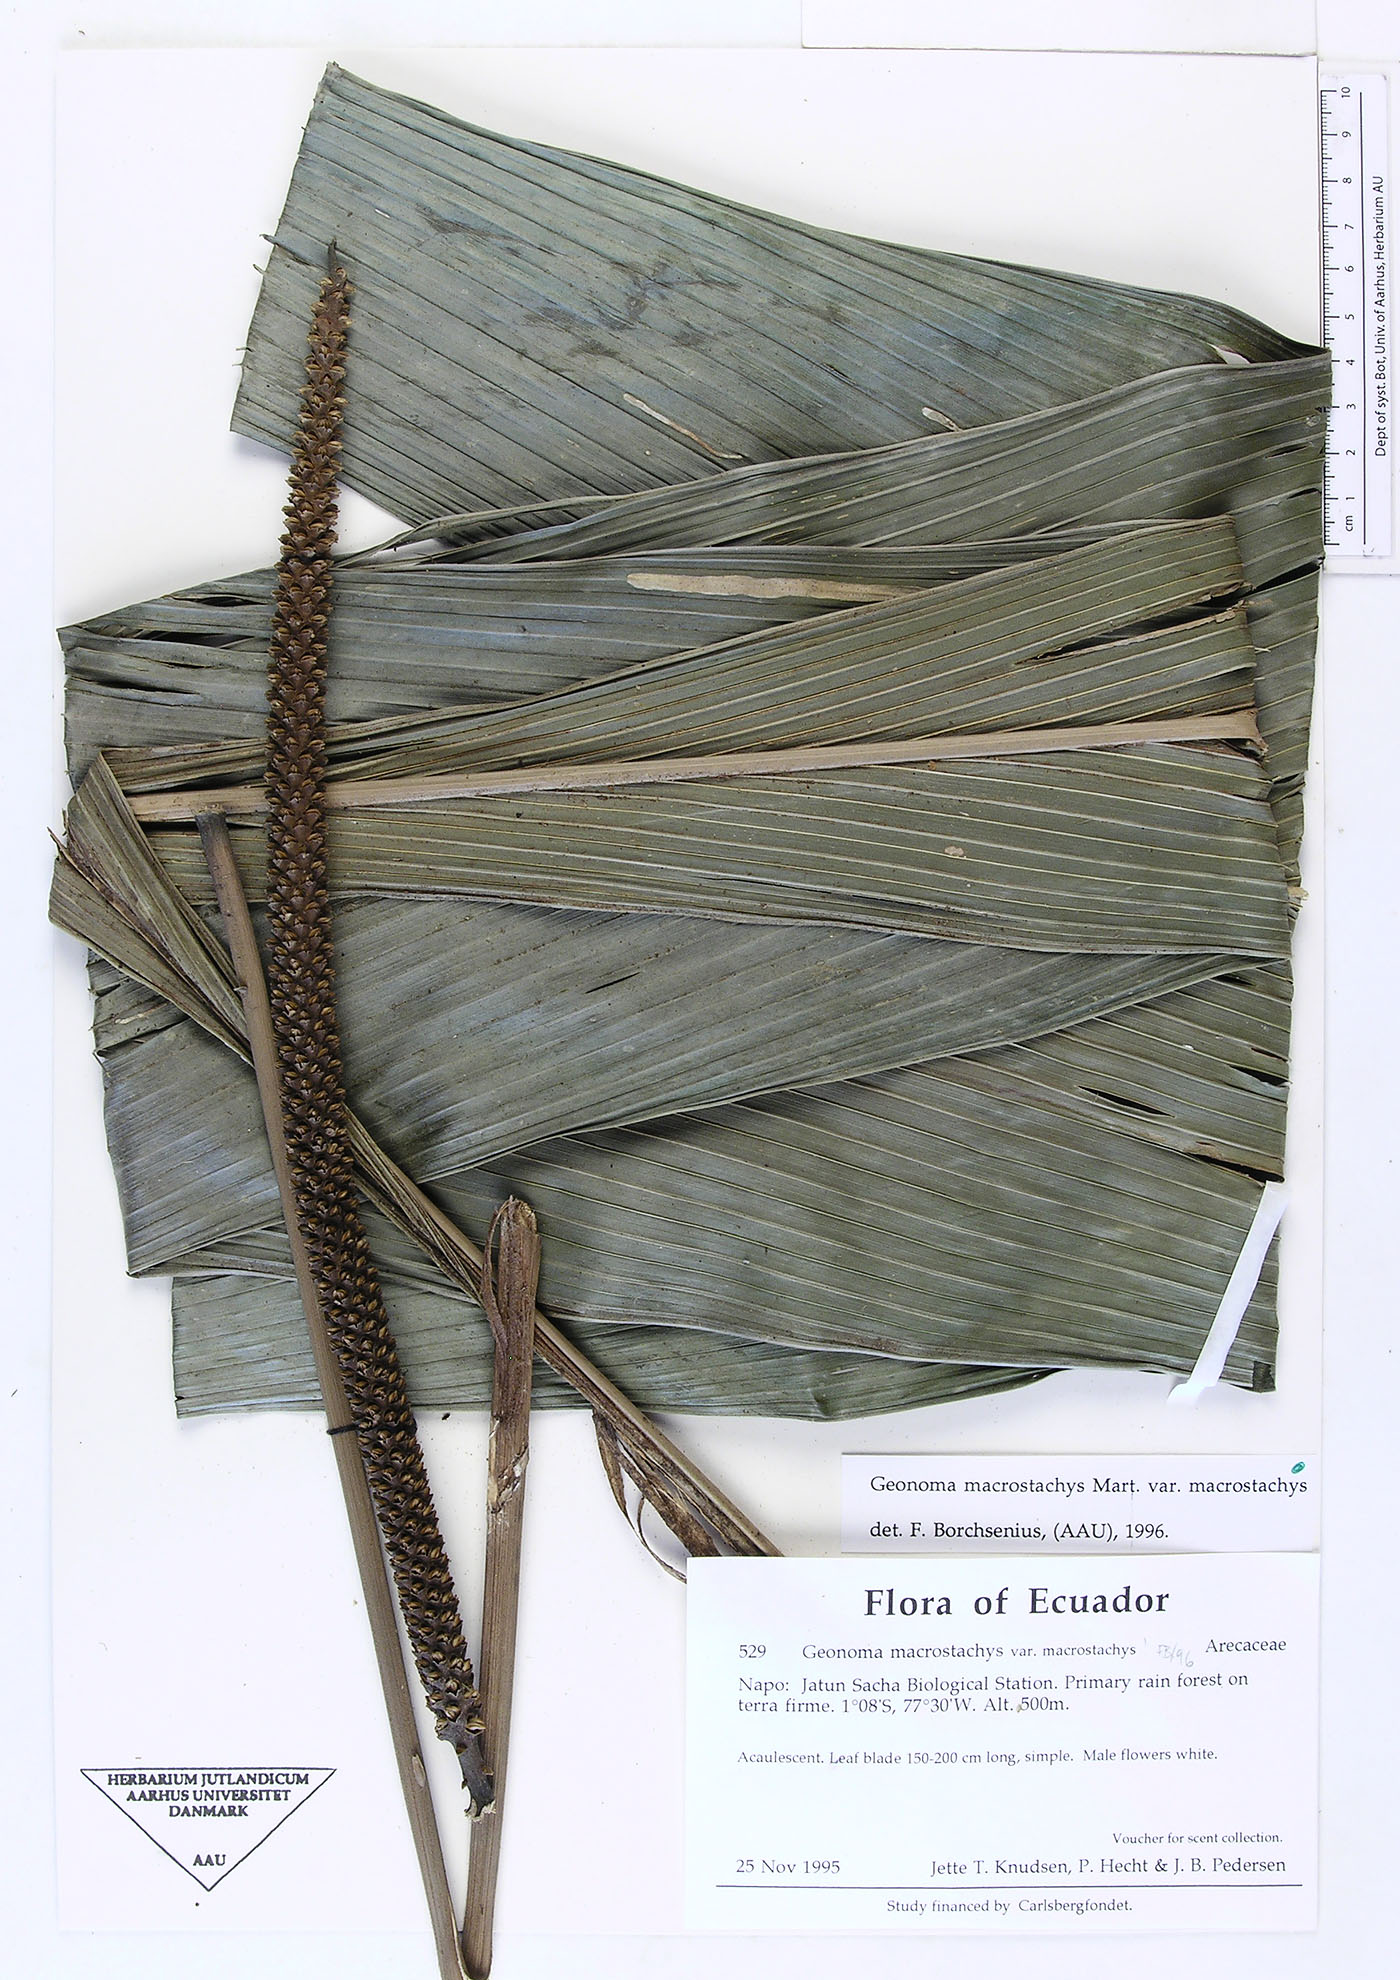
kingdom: Plantae
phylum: Tracheophyta
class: Liliopsida
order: Arecales
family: Arecaceae
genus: Geonoma
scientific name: Geonoma macrostachys
